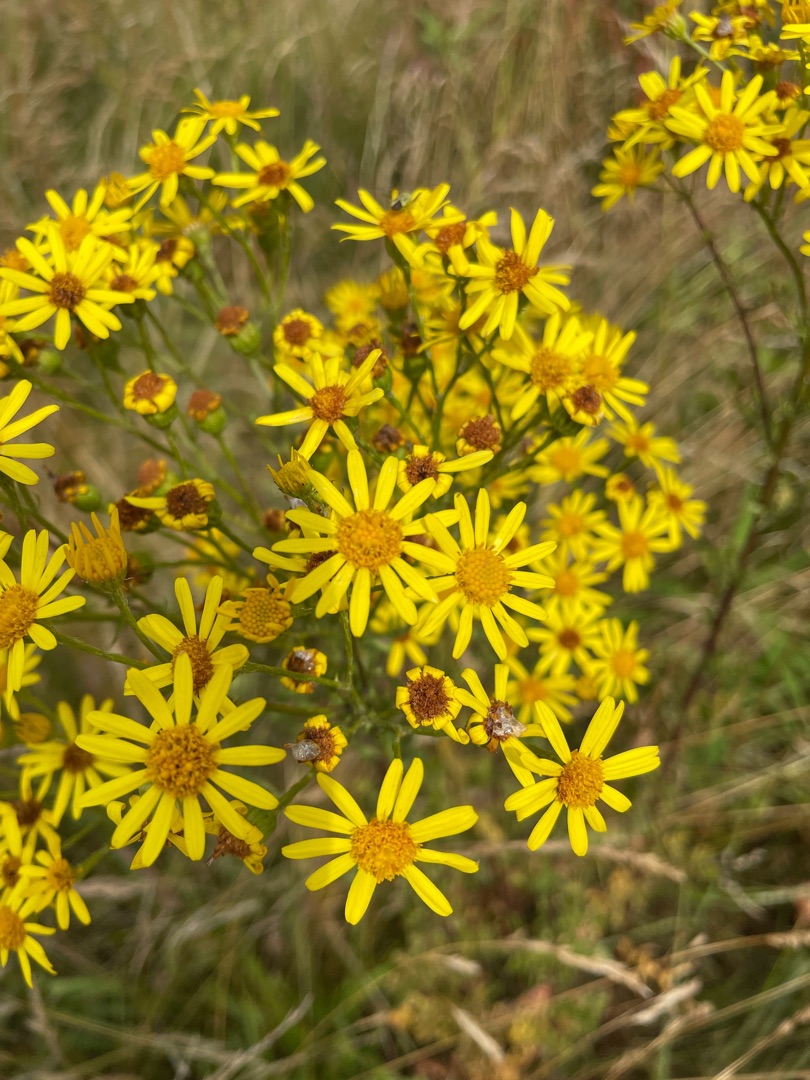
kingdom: Plantae
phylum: Tracheophyta
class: Magnoliopsida
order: Asterales
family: Asteraceae
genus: Jacobaea
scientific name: Jacobaea vulgaris
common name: Eng-brandbæger
